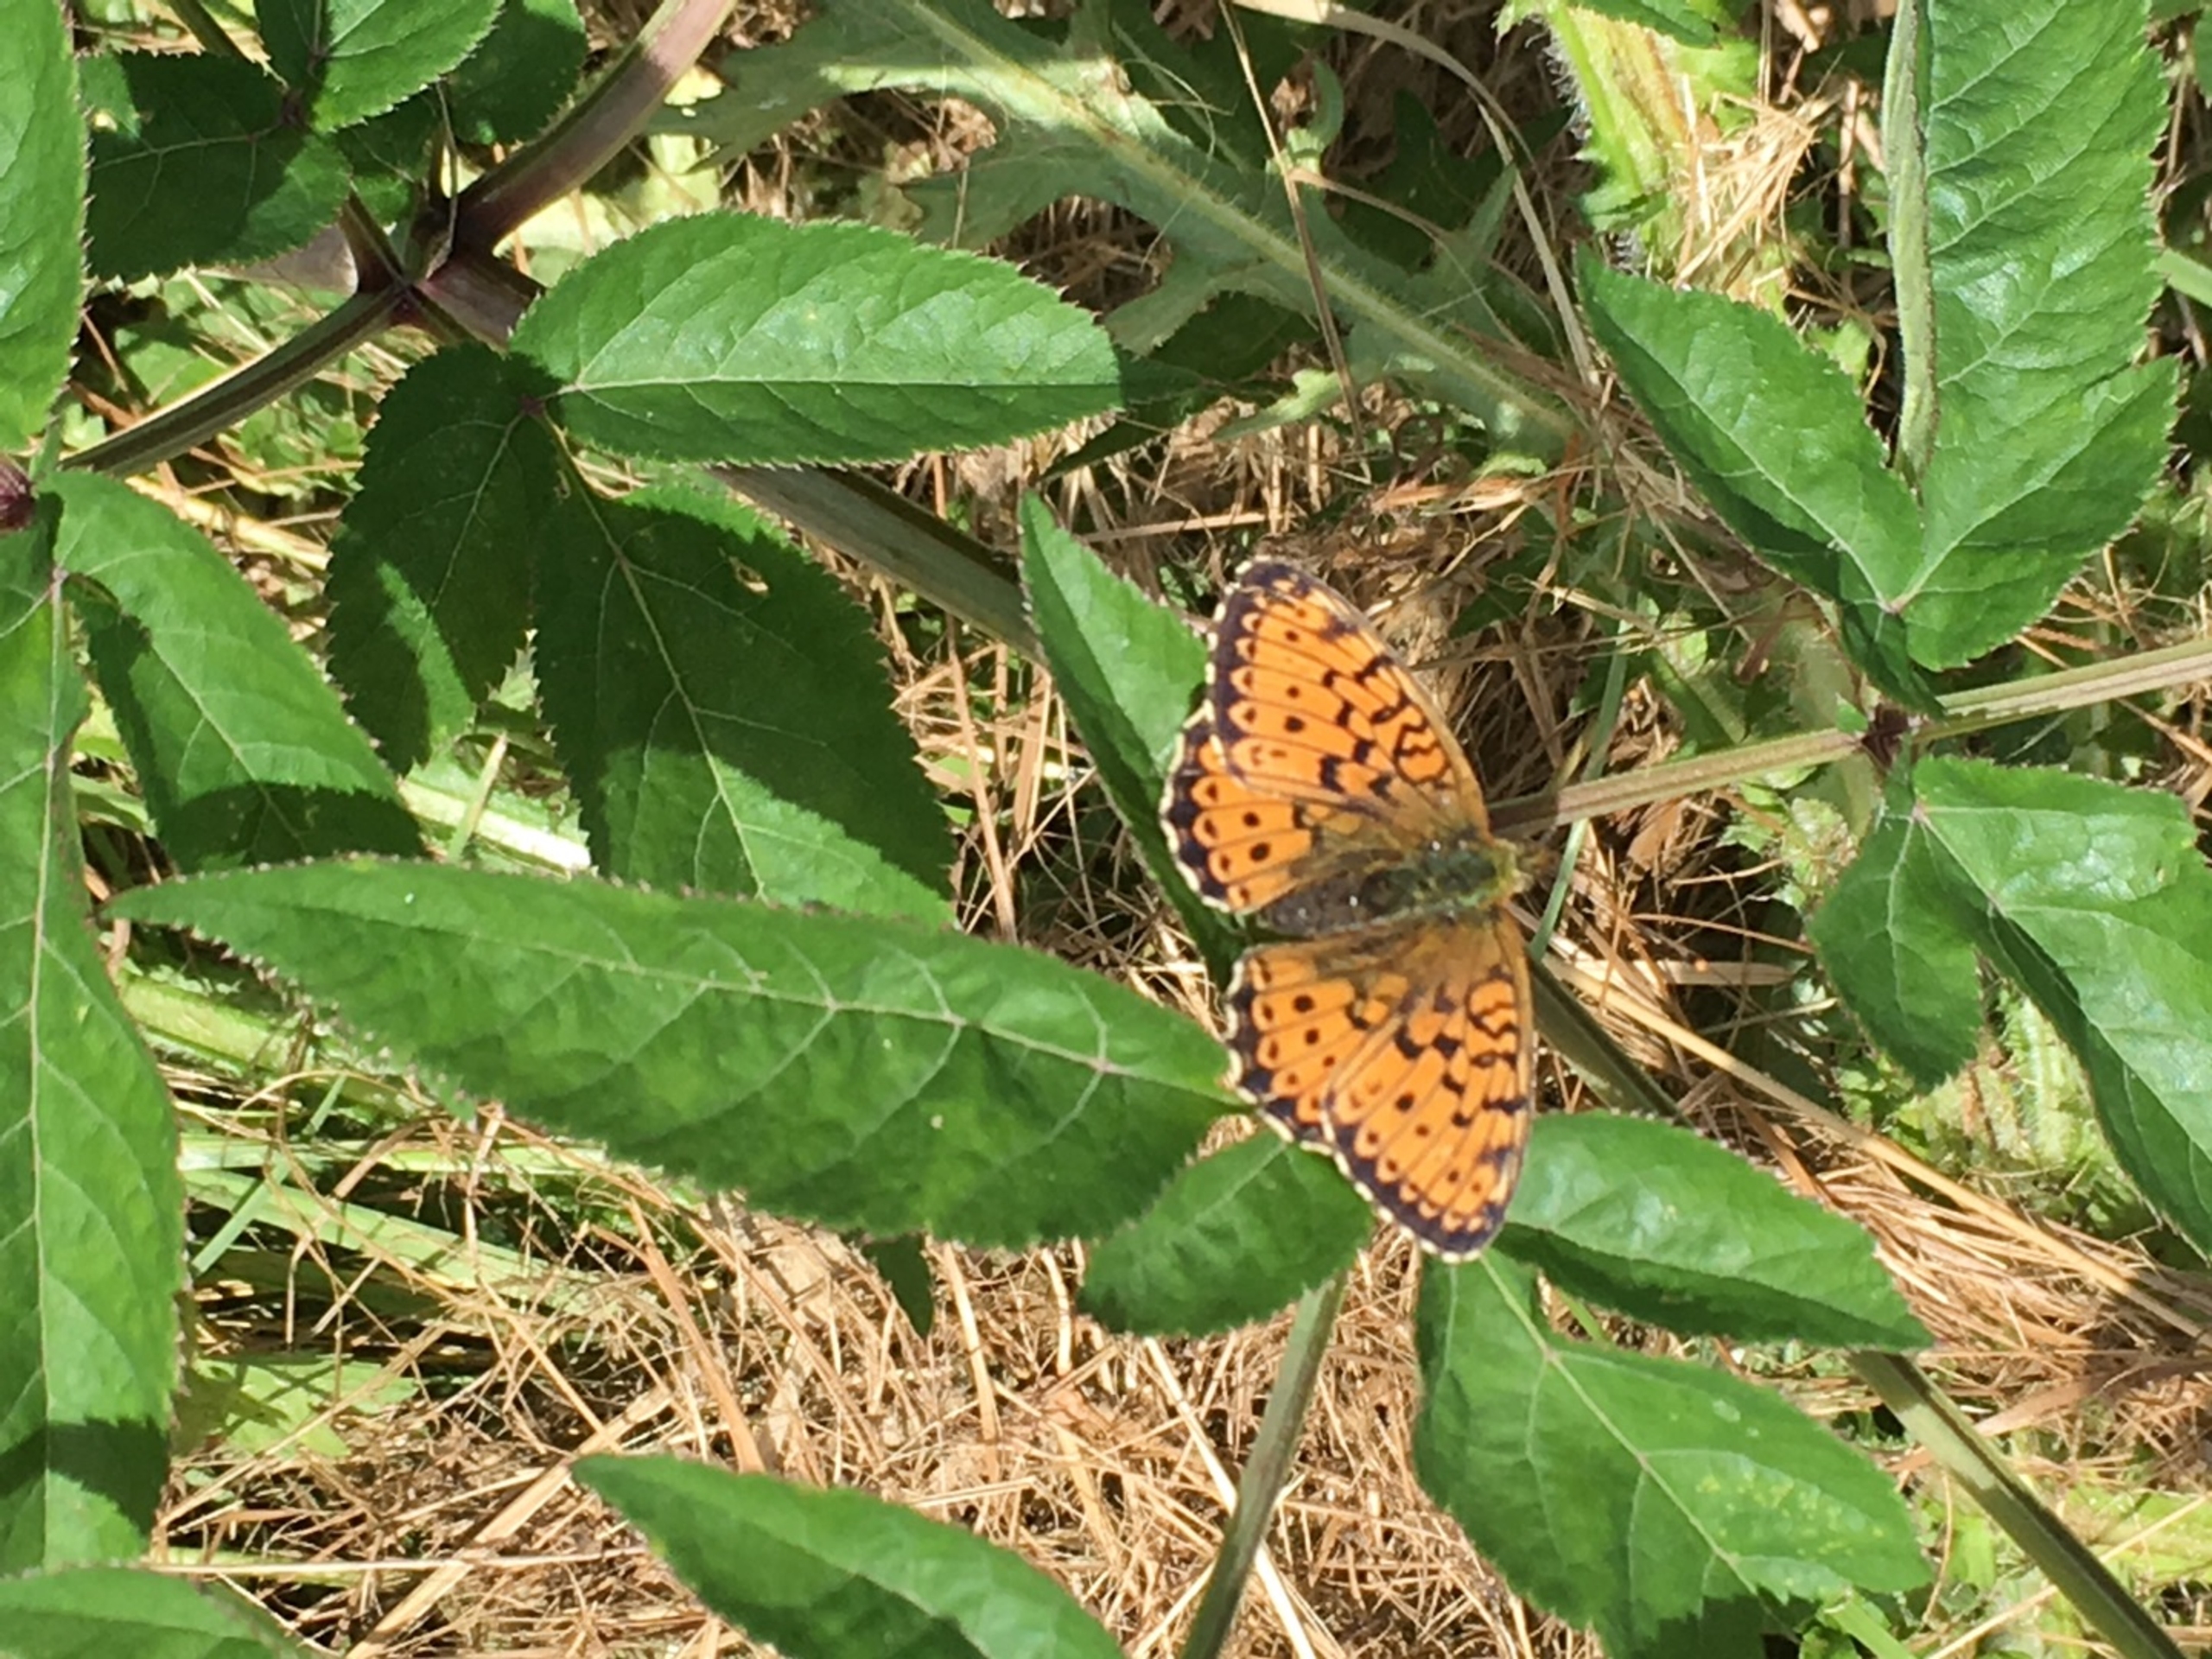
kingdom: Animalia
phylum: Arthropoda
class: Insecta
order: Lepidoptera
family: Nymphalidae
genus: Brenthis
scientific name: Brenthis ino
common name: Engperlemorsommerfugl
